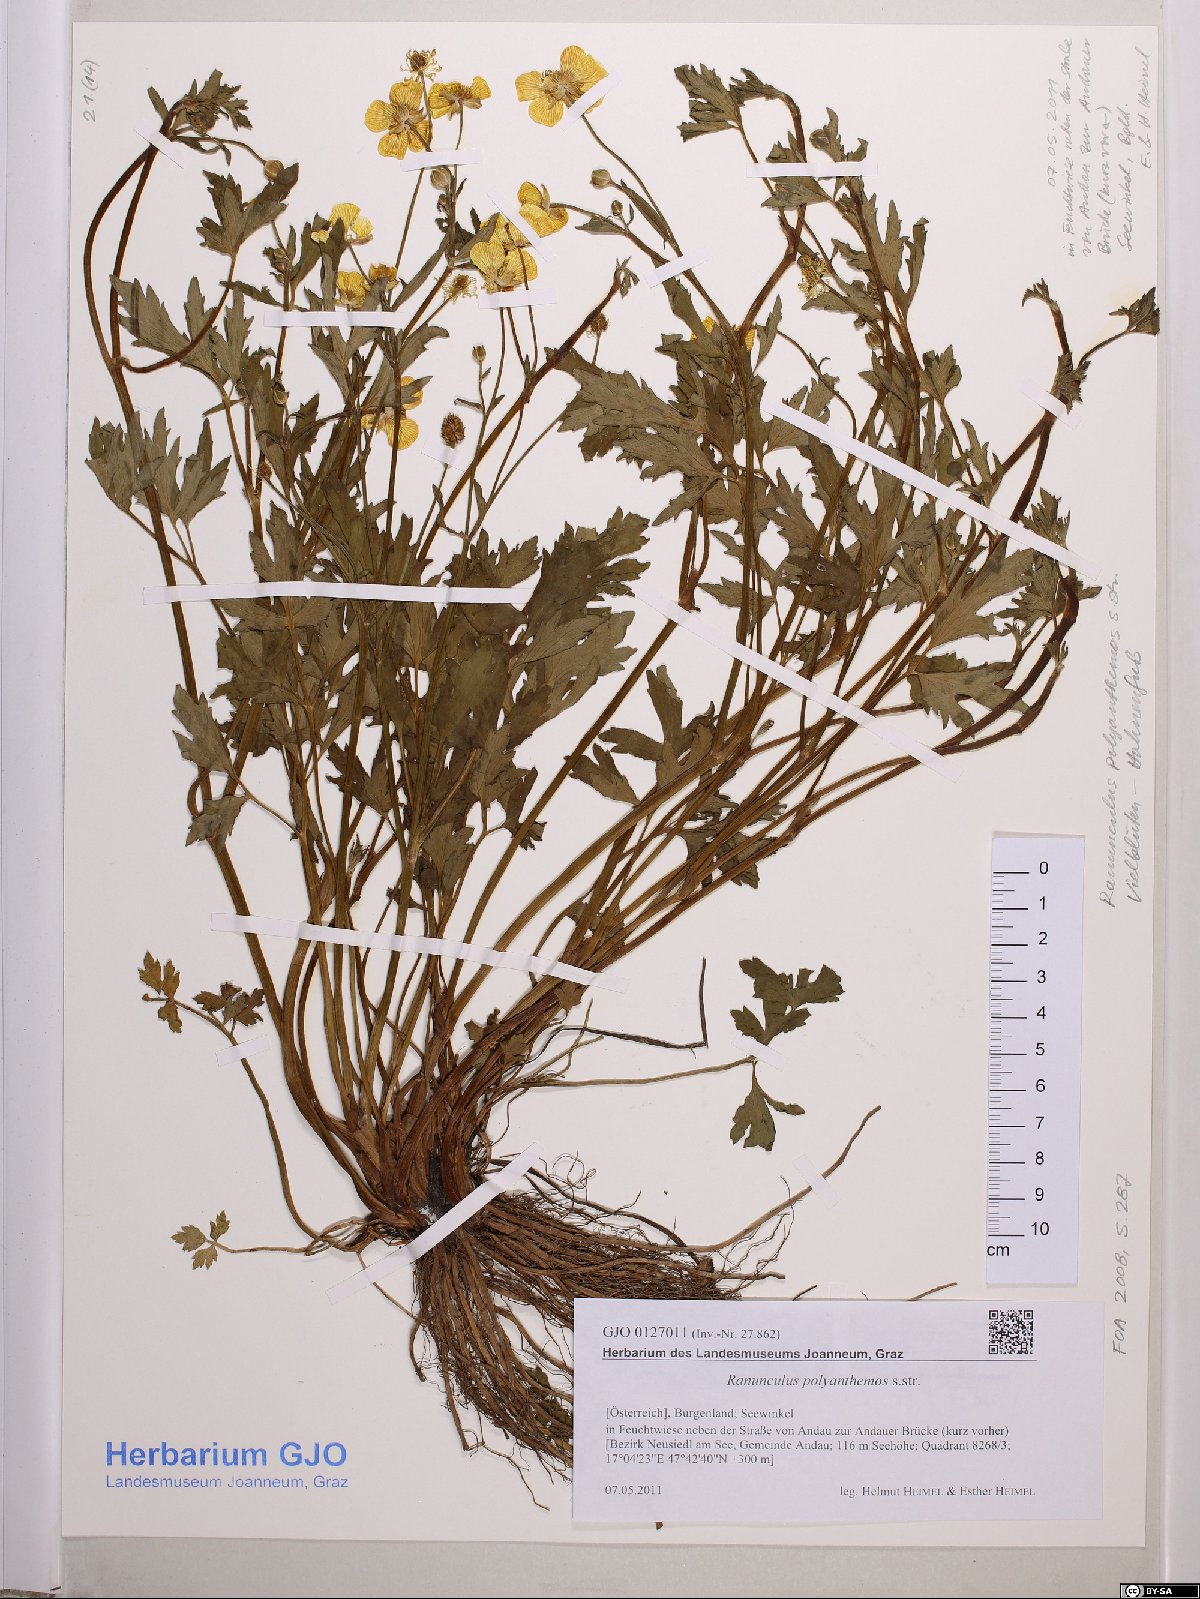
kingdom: Plantae
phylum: Tracheophyta
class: Magnoliopsida
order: Ranunculales
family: Ranunculaceae
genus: Ranunculus
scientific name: Ranunculus polyanthemos
